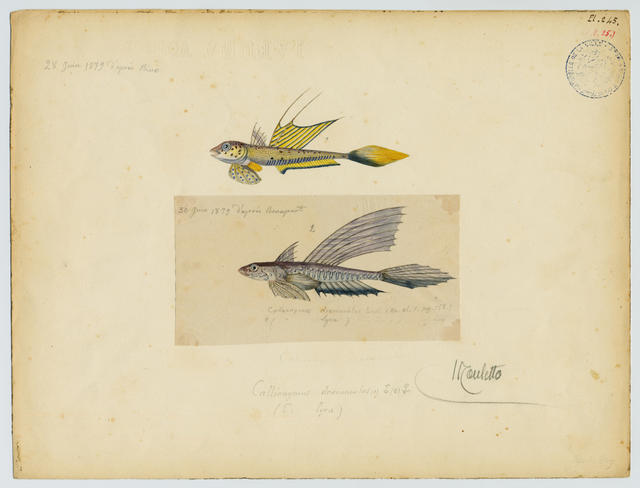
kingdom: Animalia
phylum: Chordata
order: Perciformes
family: Callionymidae
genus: Callionymus
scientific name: Callionymus pusillus
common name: Sailfin dragonet
